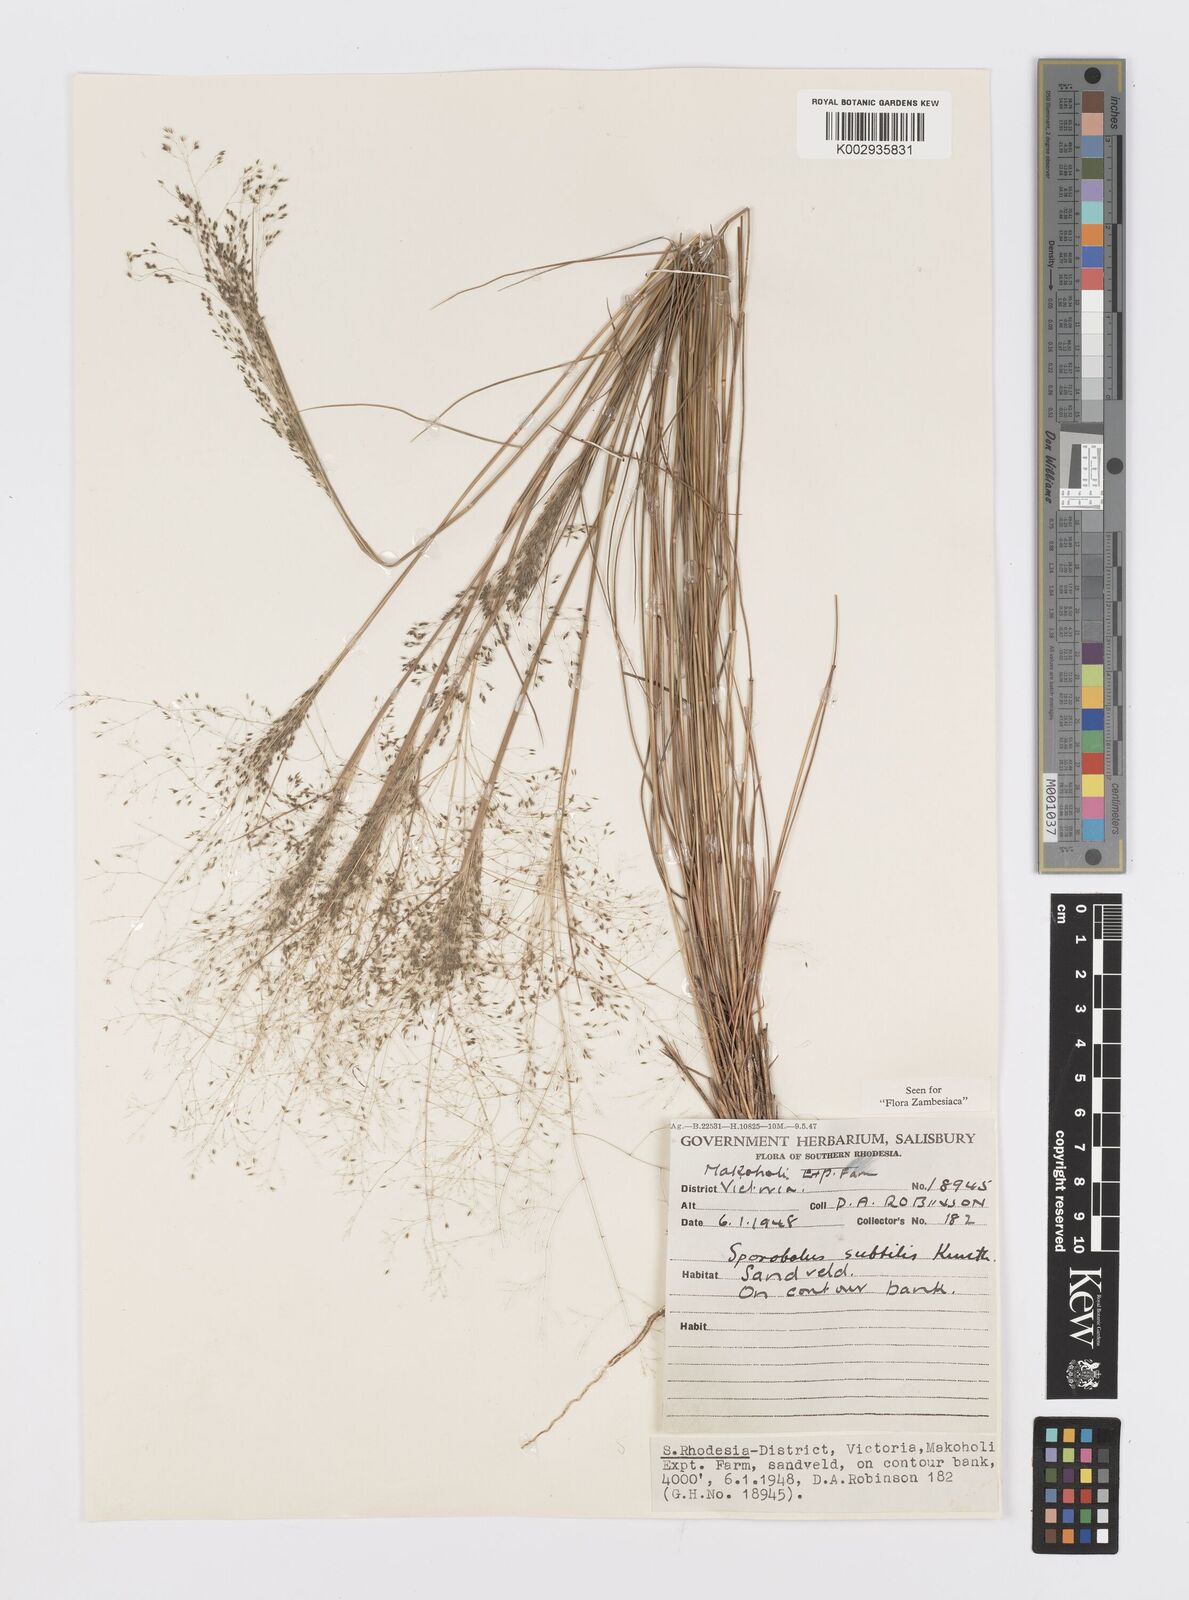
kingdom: Plantae
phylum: Tracheophyta
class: Liliopsida
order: Poales
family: Poaceae
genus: Sporobolus
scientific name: Sporobolus subtilis
